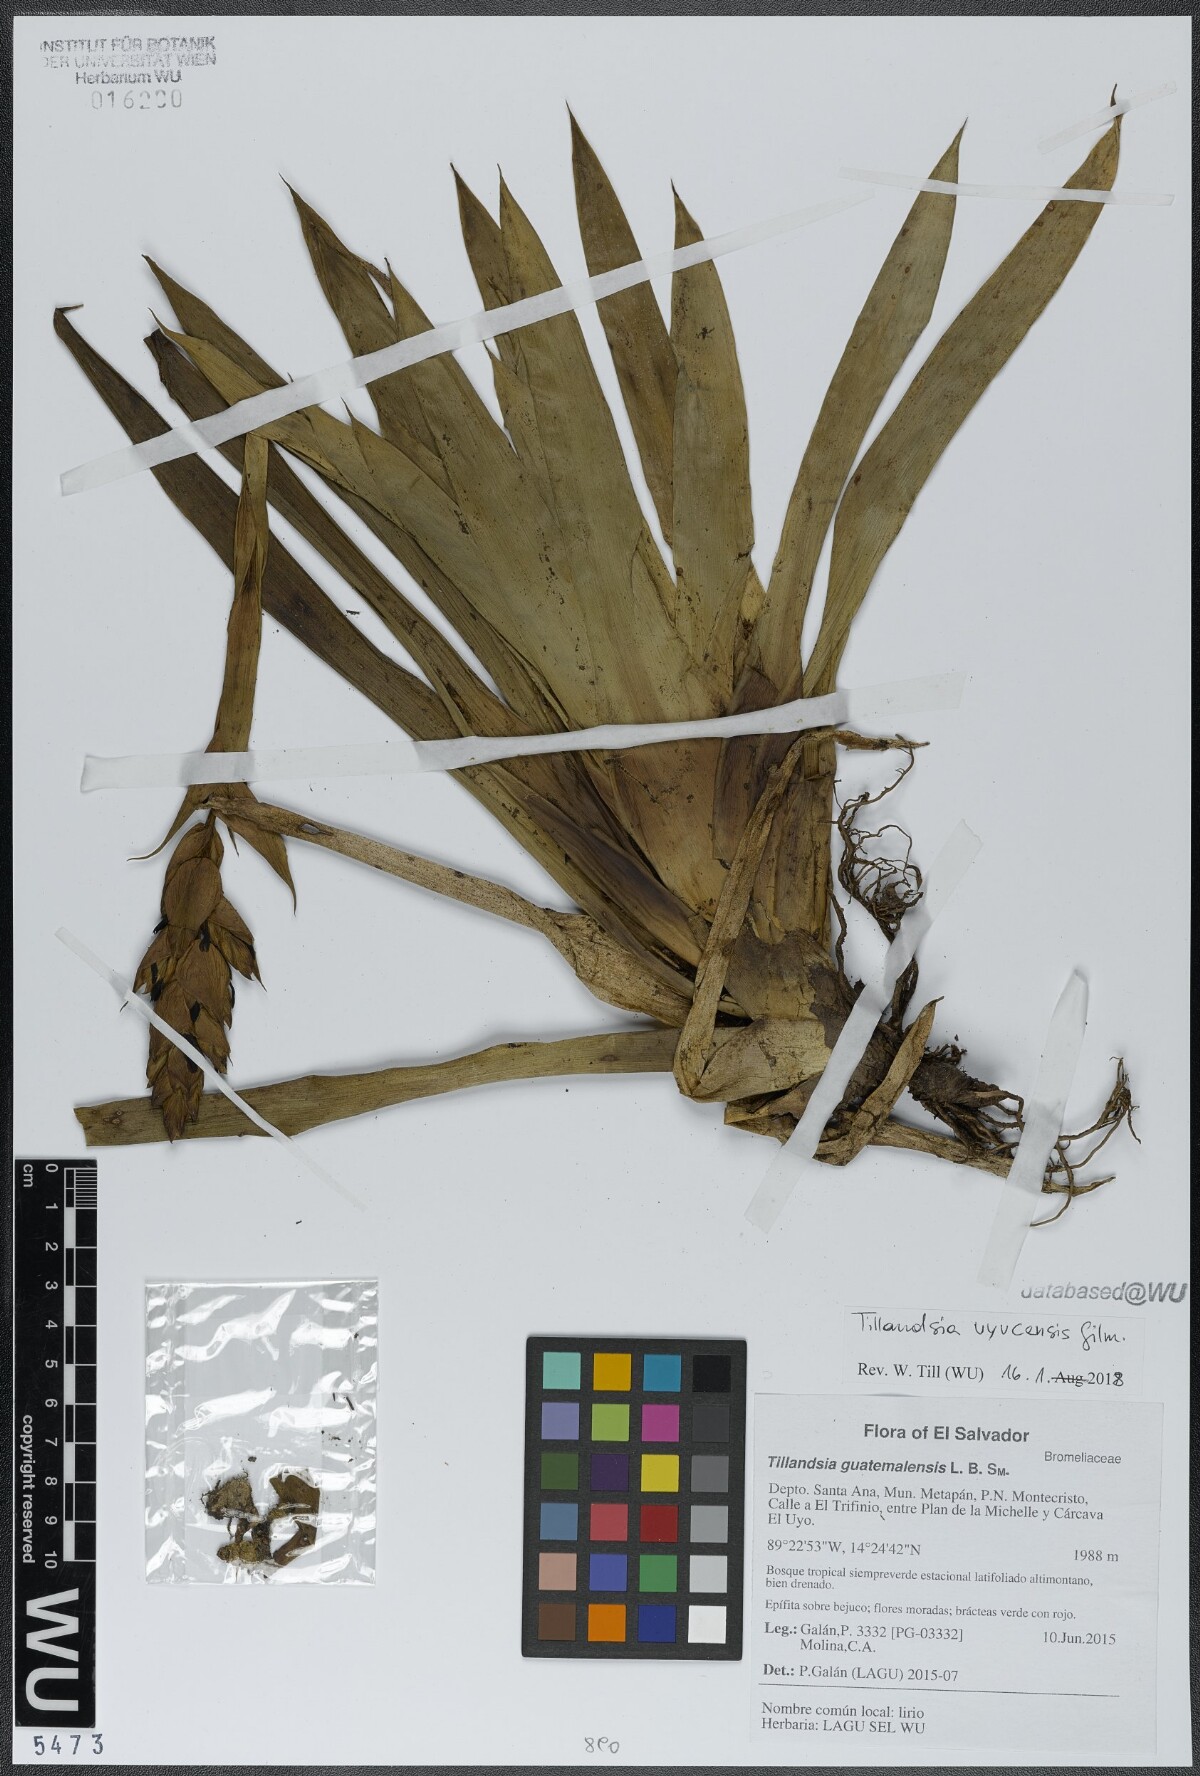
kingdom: Plantae
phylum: Tracheophyta
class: Liliopsida
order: Poales
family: Bromeliaceae
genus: Tillandsia
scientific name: Tillandsia guatemalensis
